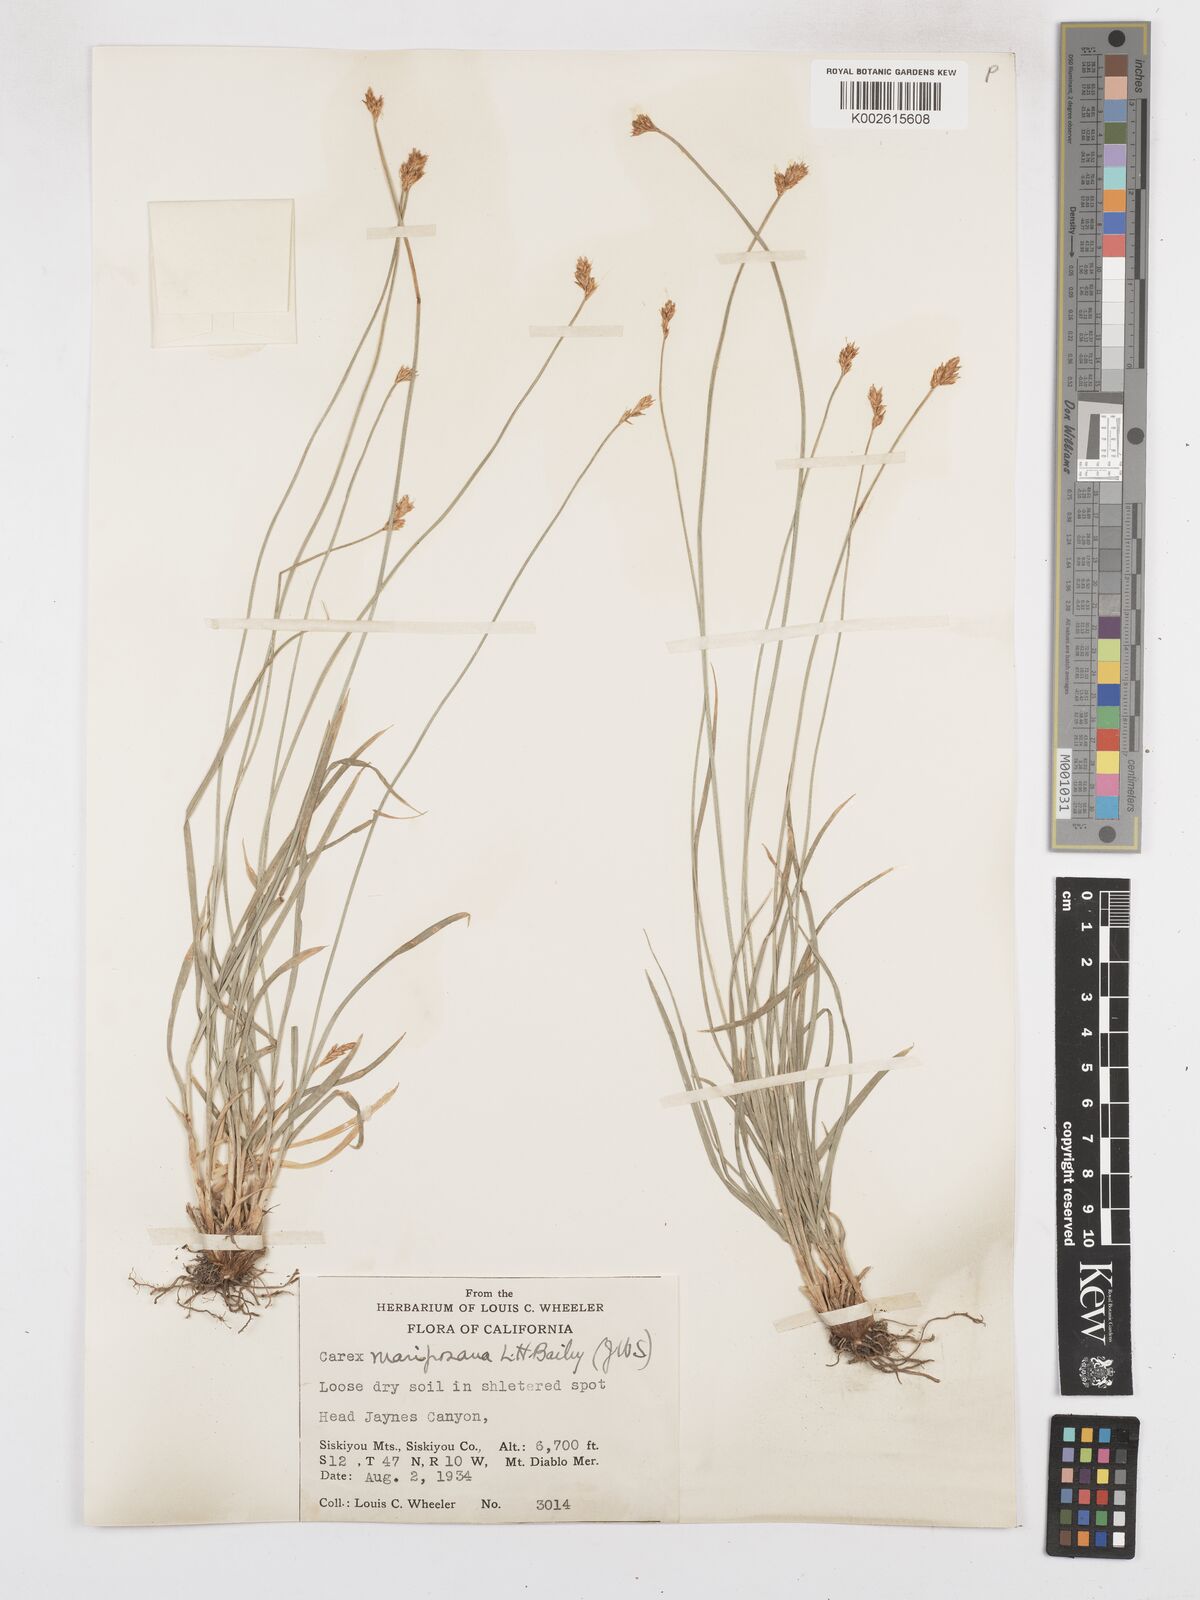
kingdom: Plantae
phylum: Tracheophyta
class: Liliopsida
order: Poales
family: Cyperaceae
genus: Carex
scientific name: Carex mariposana
